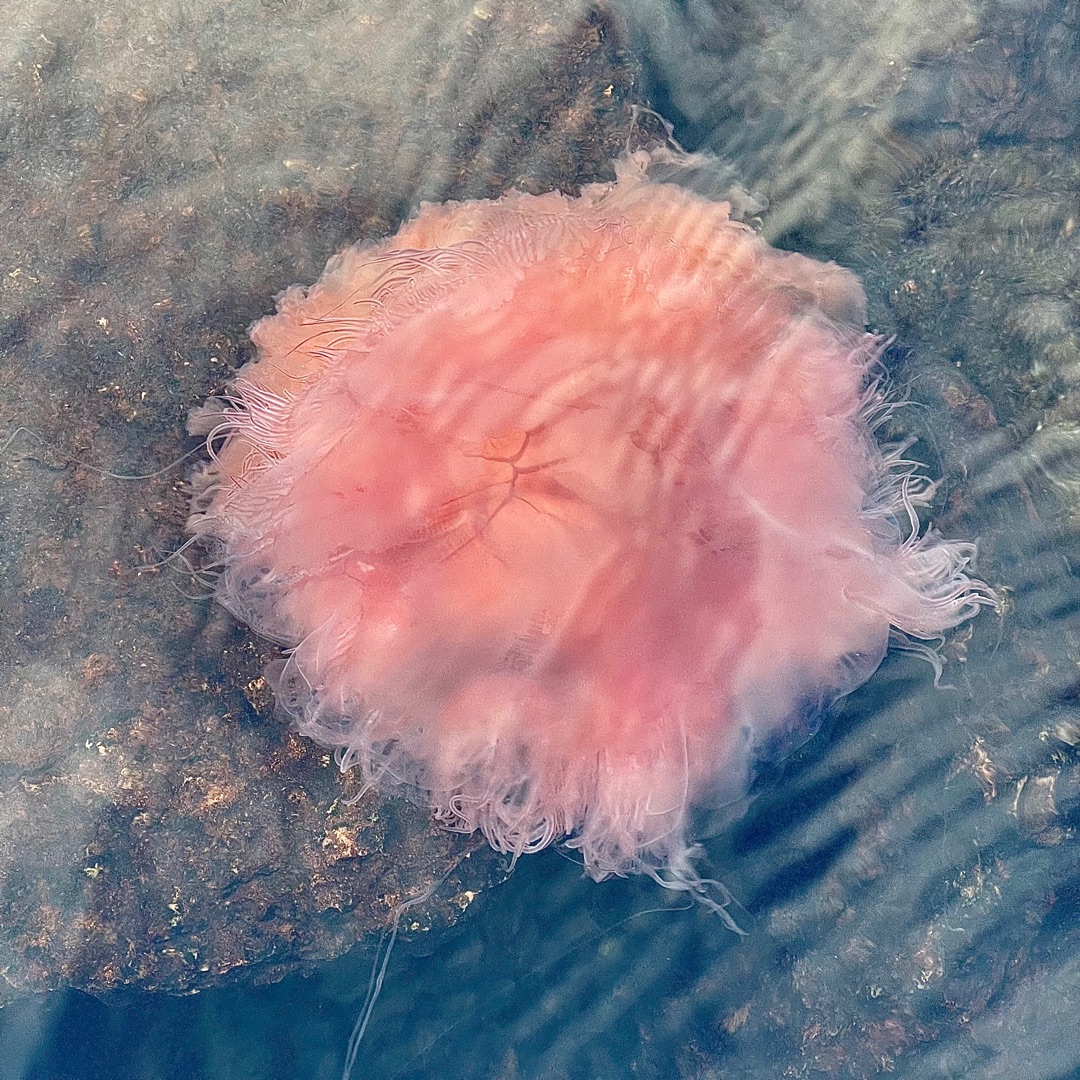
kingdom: Animalia
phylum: Cnidaria
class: Scyphozoa
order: Semaeostomeae
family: Cyaneidae
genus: Cyanea
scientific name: Cyanea capillata
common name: Rød brandmand
